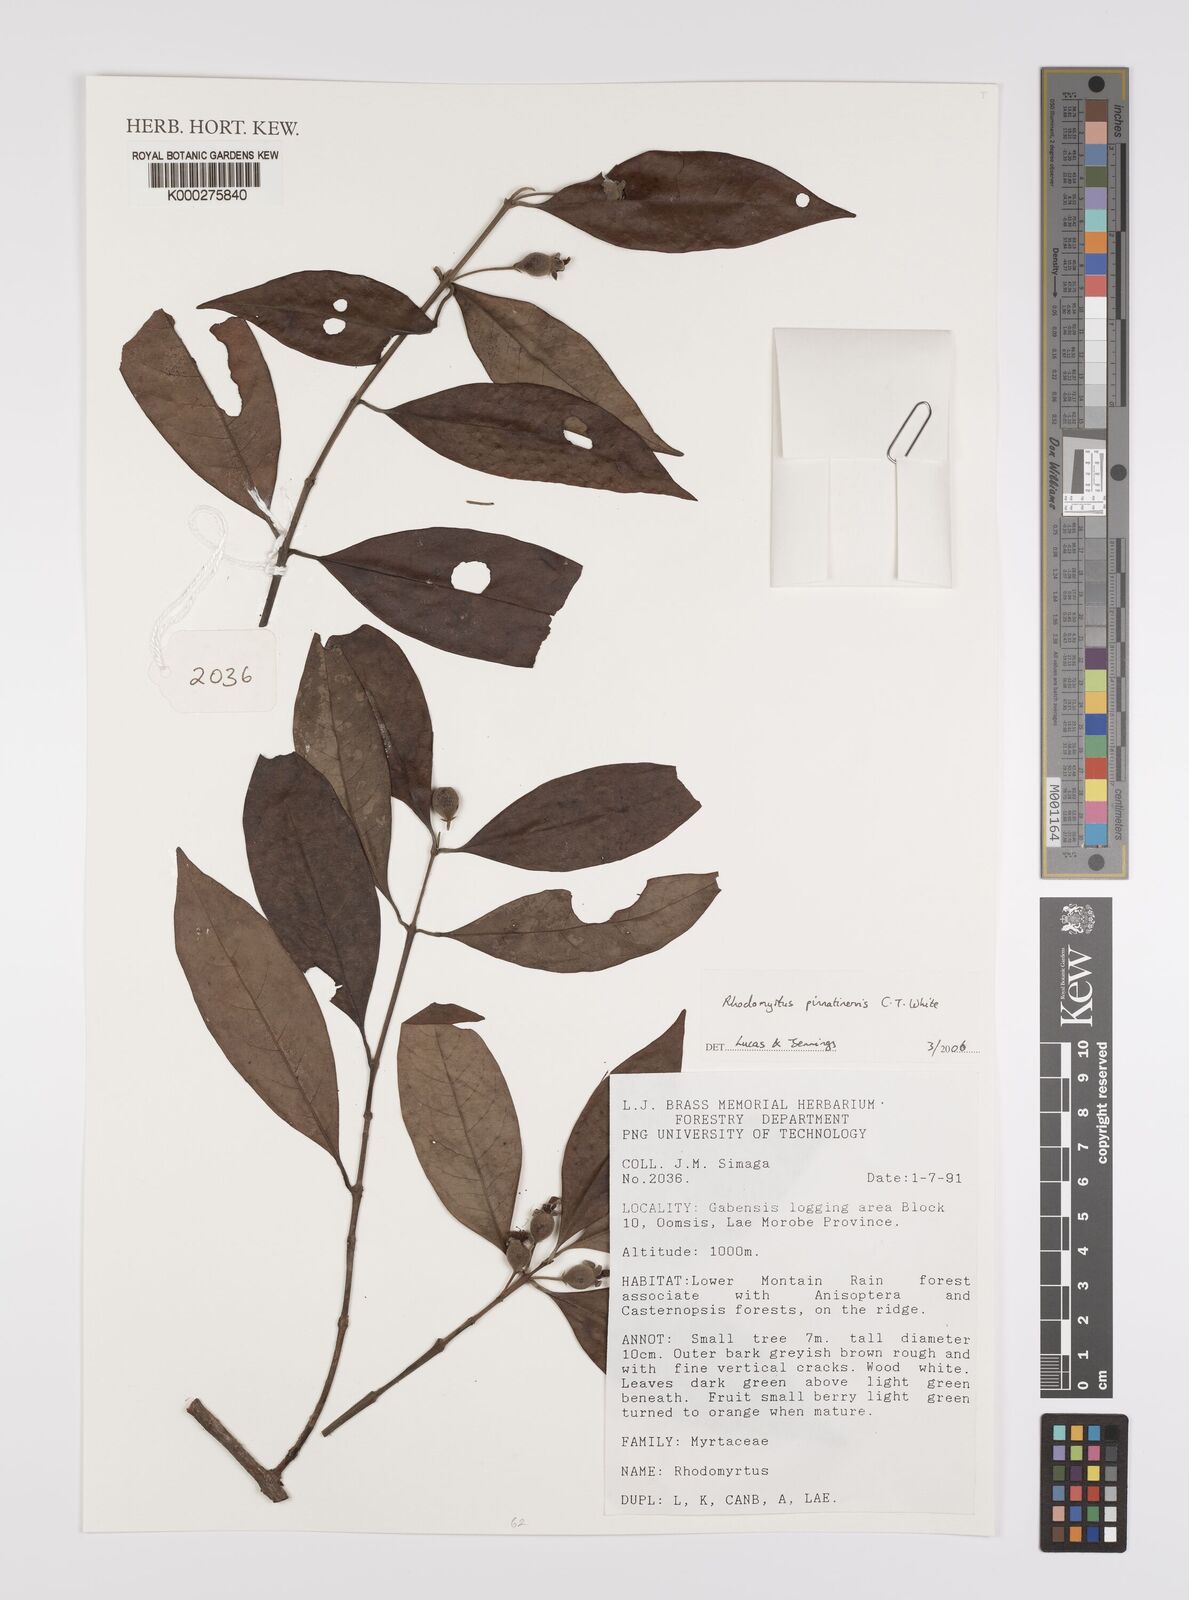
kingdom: Plantae
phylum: Tracheophyta
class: Magnoliopsida
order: Myrtales
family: Myrtaceae
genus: Rhodomyrtus
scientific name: Rhodomyrtus pinnatinervis
